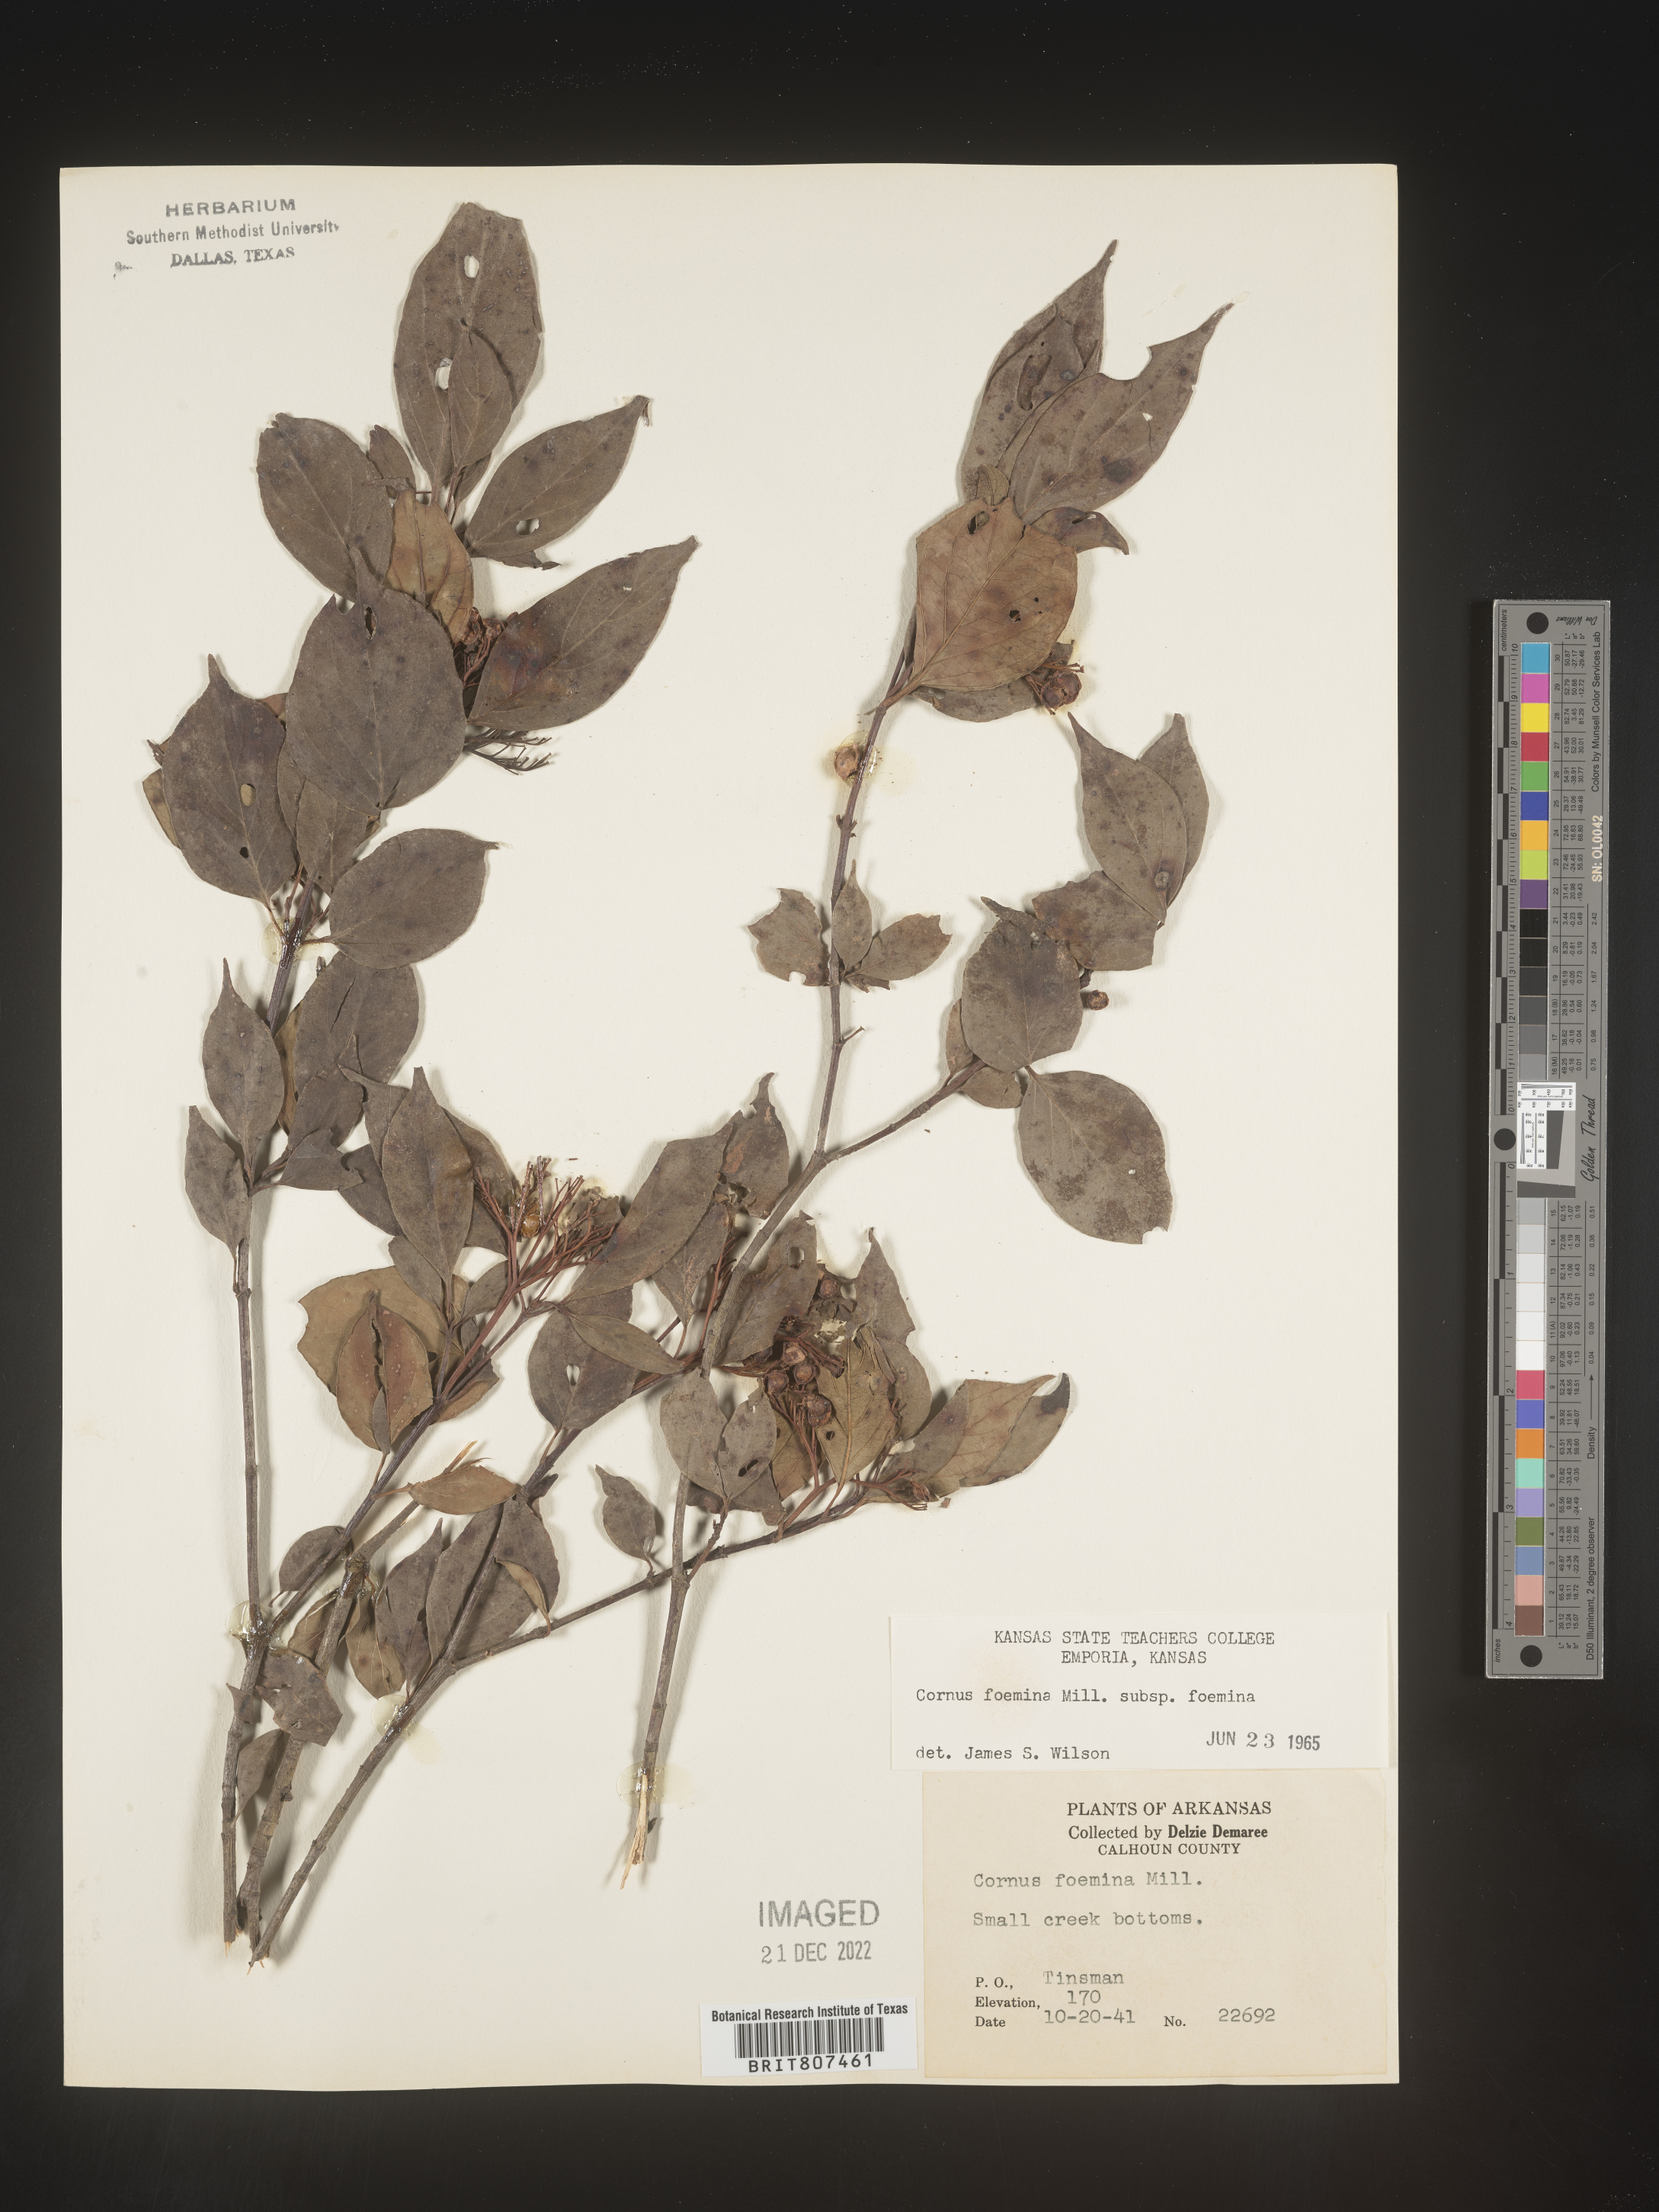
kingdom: Plantae
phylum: Tracheophyta
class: Magnoliopsida
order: Cornales
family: Cornaceae
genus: Cornus
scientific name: Cornus foemina
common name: Swamp dogwood
